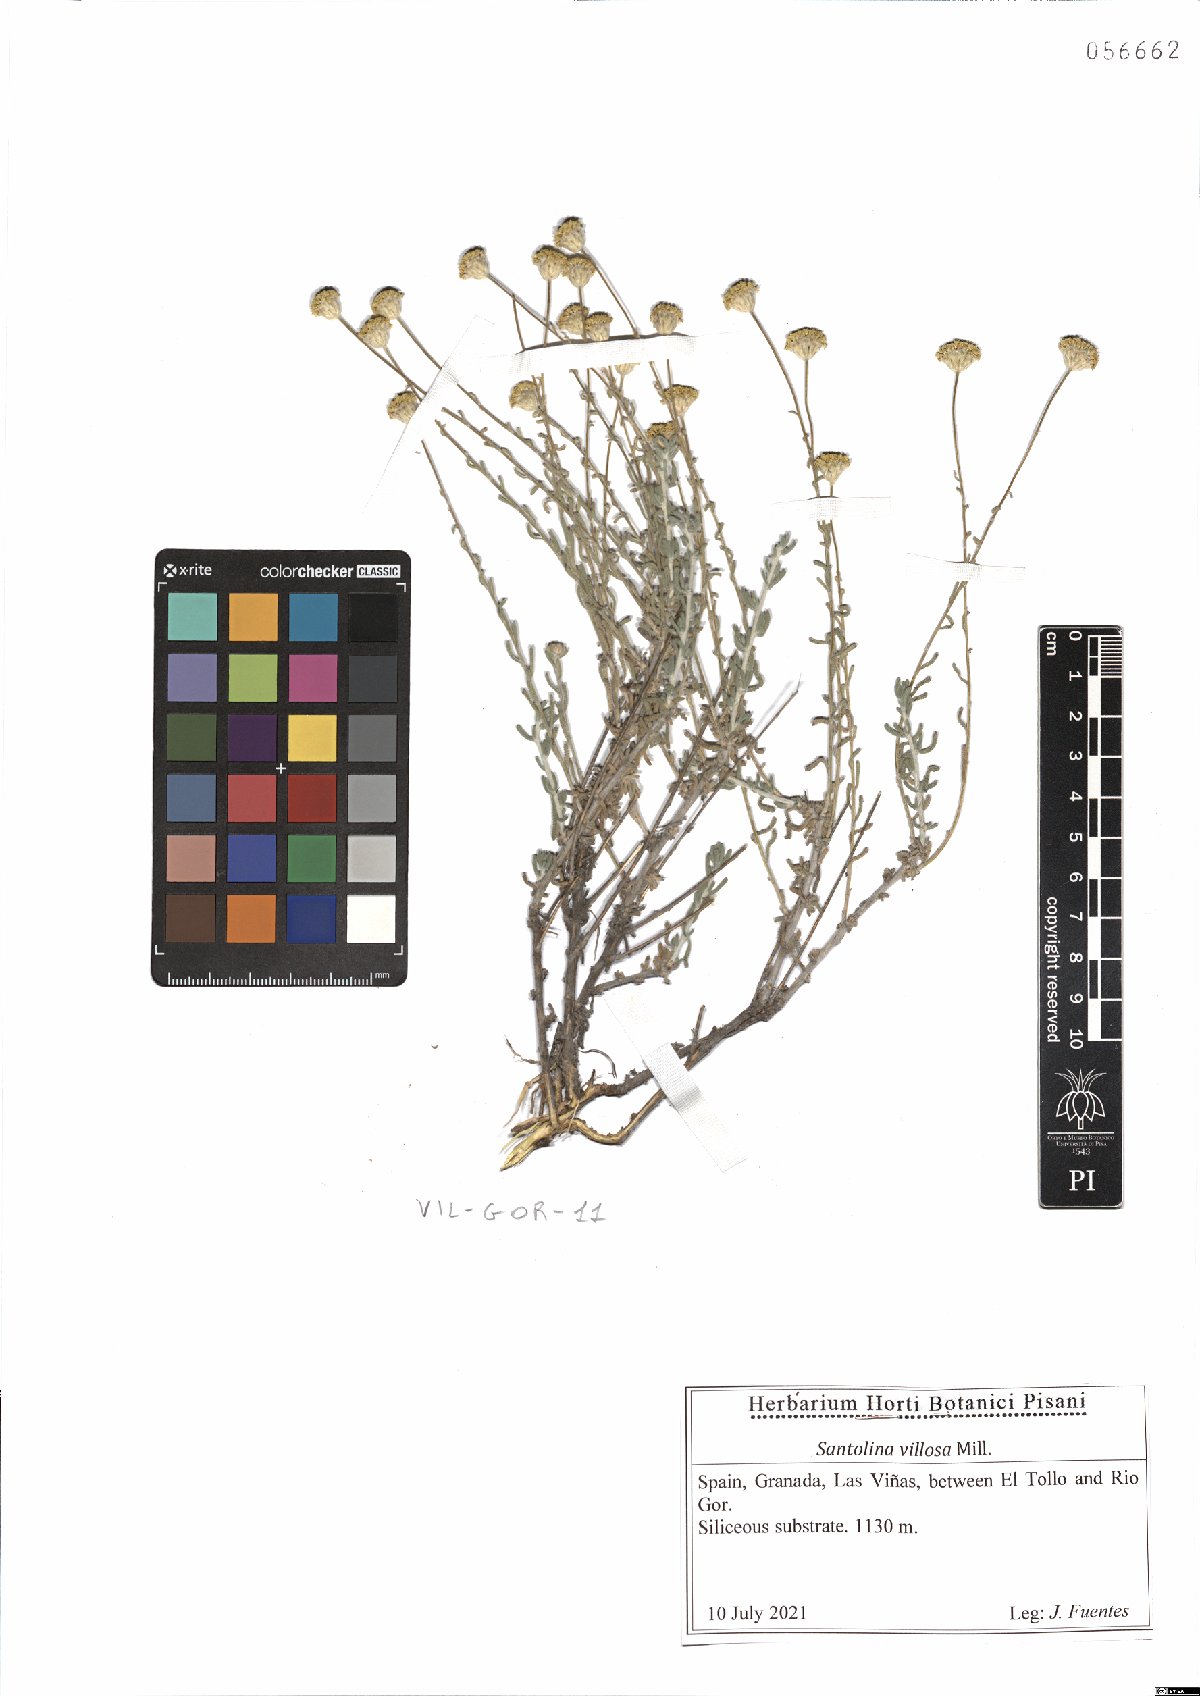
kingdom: Plantae
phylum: Tracheophyta
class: Magnoliopsida
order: Asterales
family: Asteraceae
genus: Santolina
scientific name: Santolina chamaecyparissus
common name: Lavender-cotton
